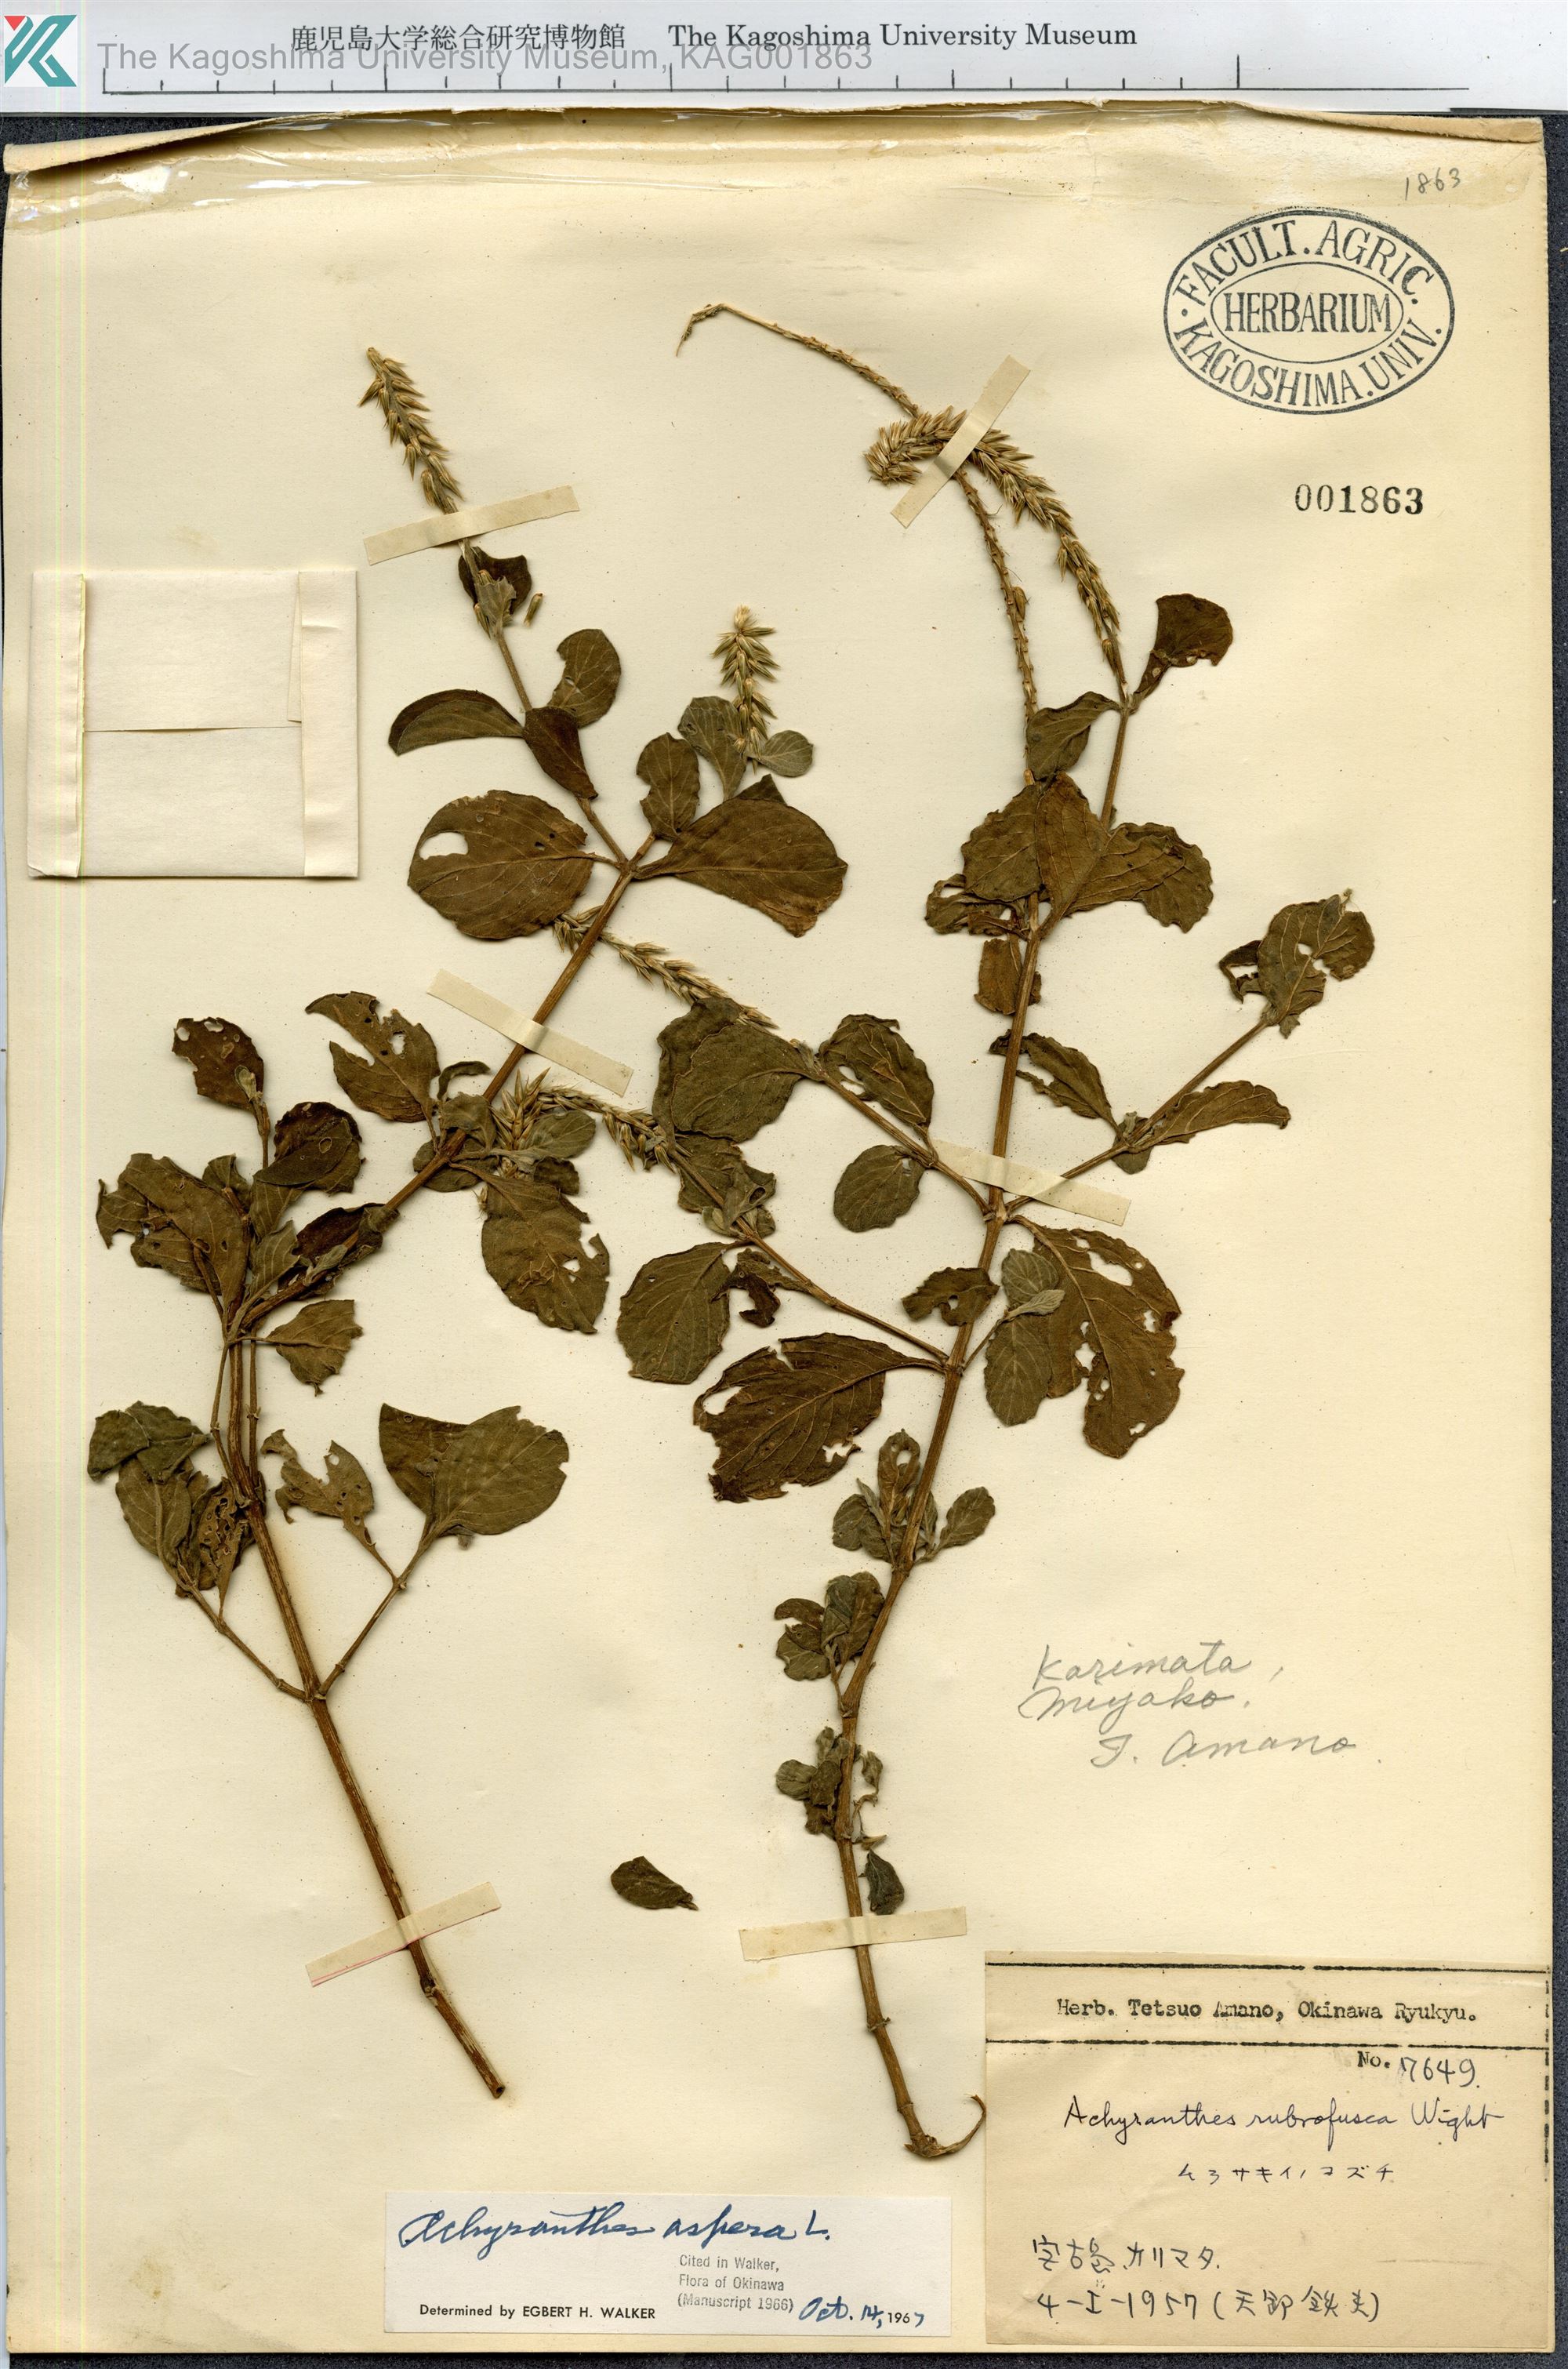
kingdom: Plantae
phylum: Tracheophyta
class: Magnoliopsida
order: Caryophyllales
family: Amaranthaceae
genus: Achyranthes
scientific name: Achyranthes aspera
